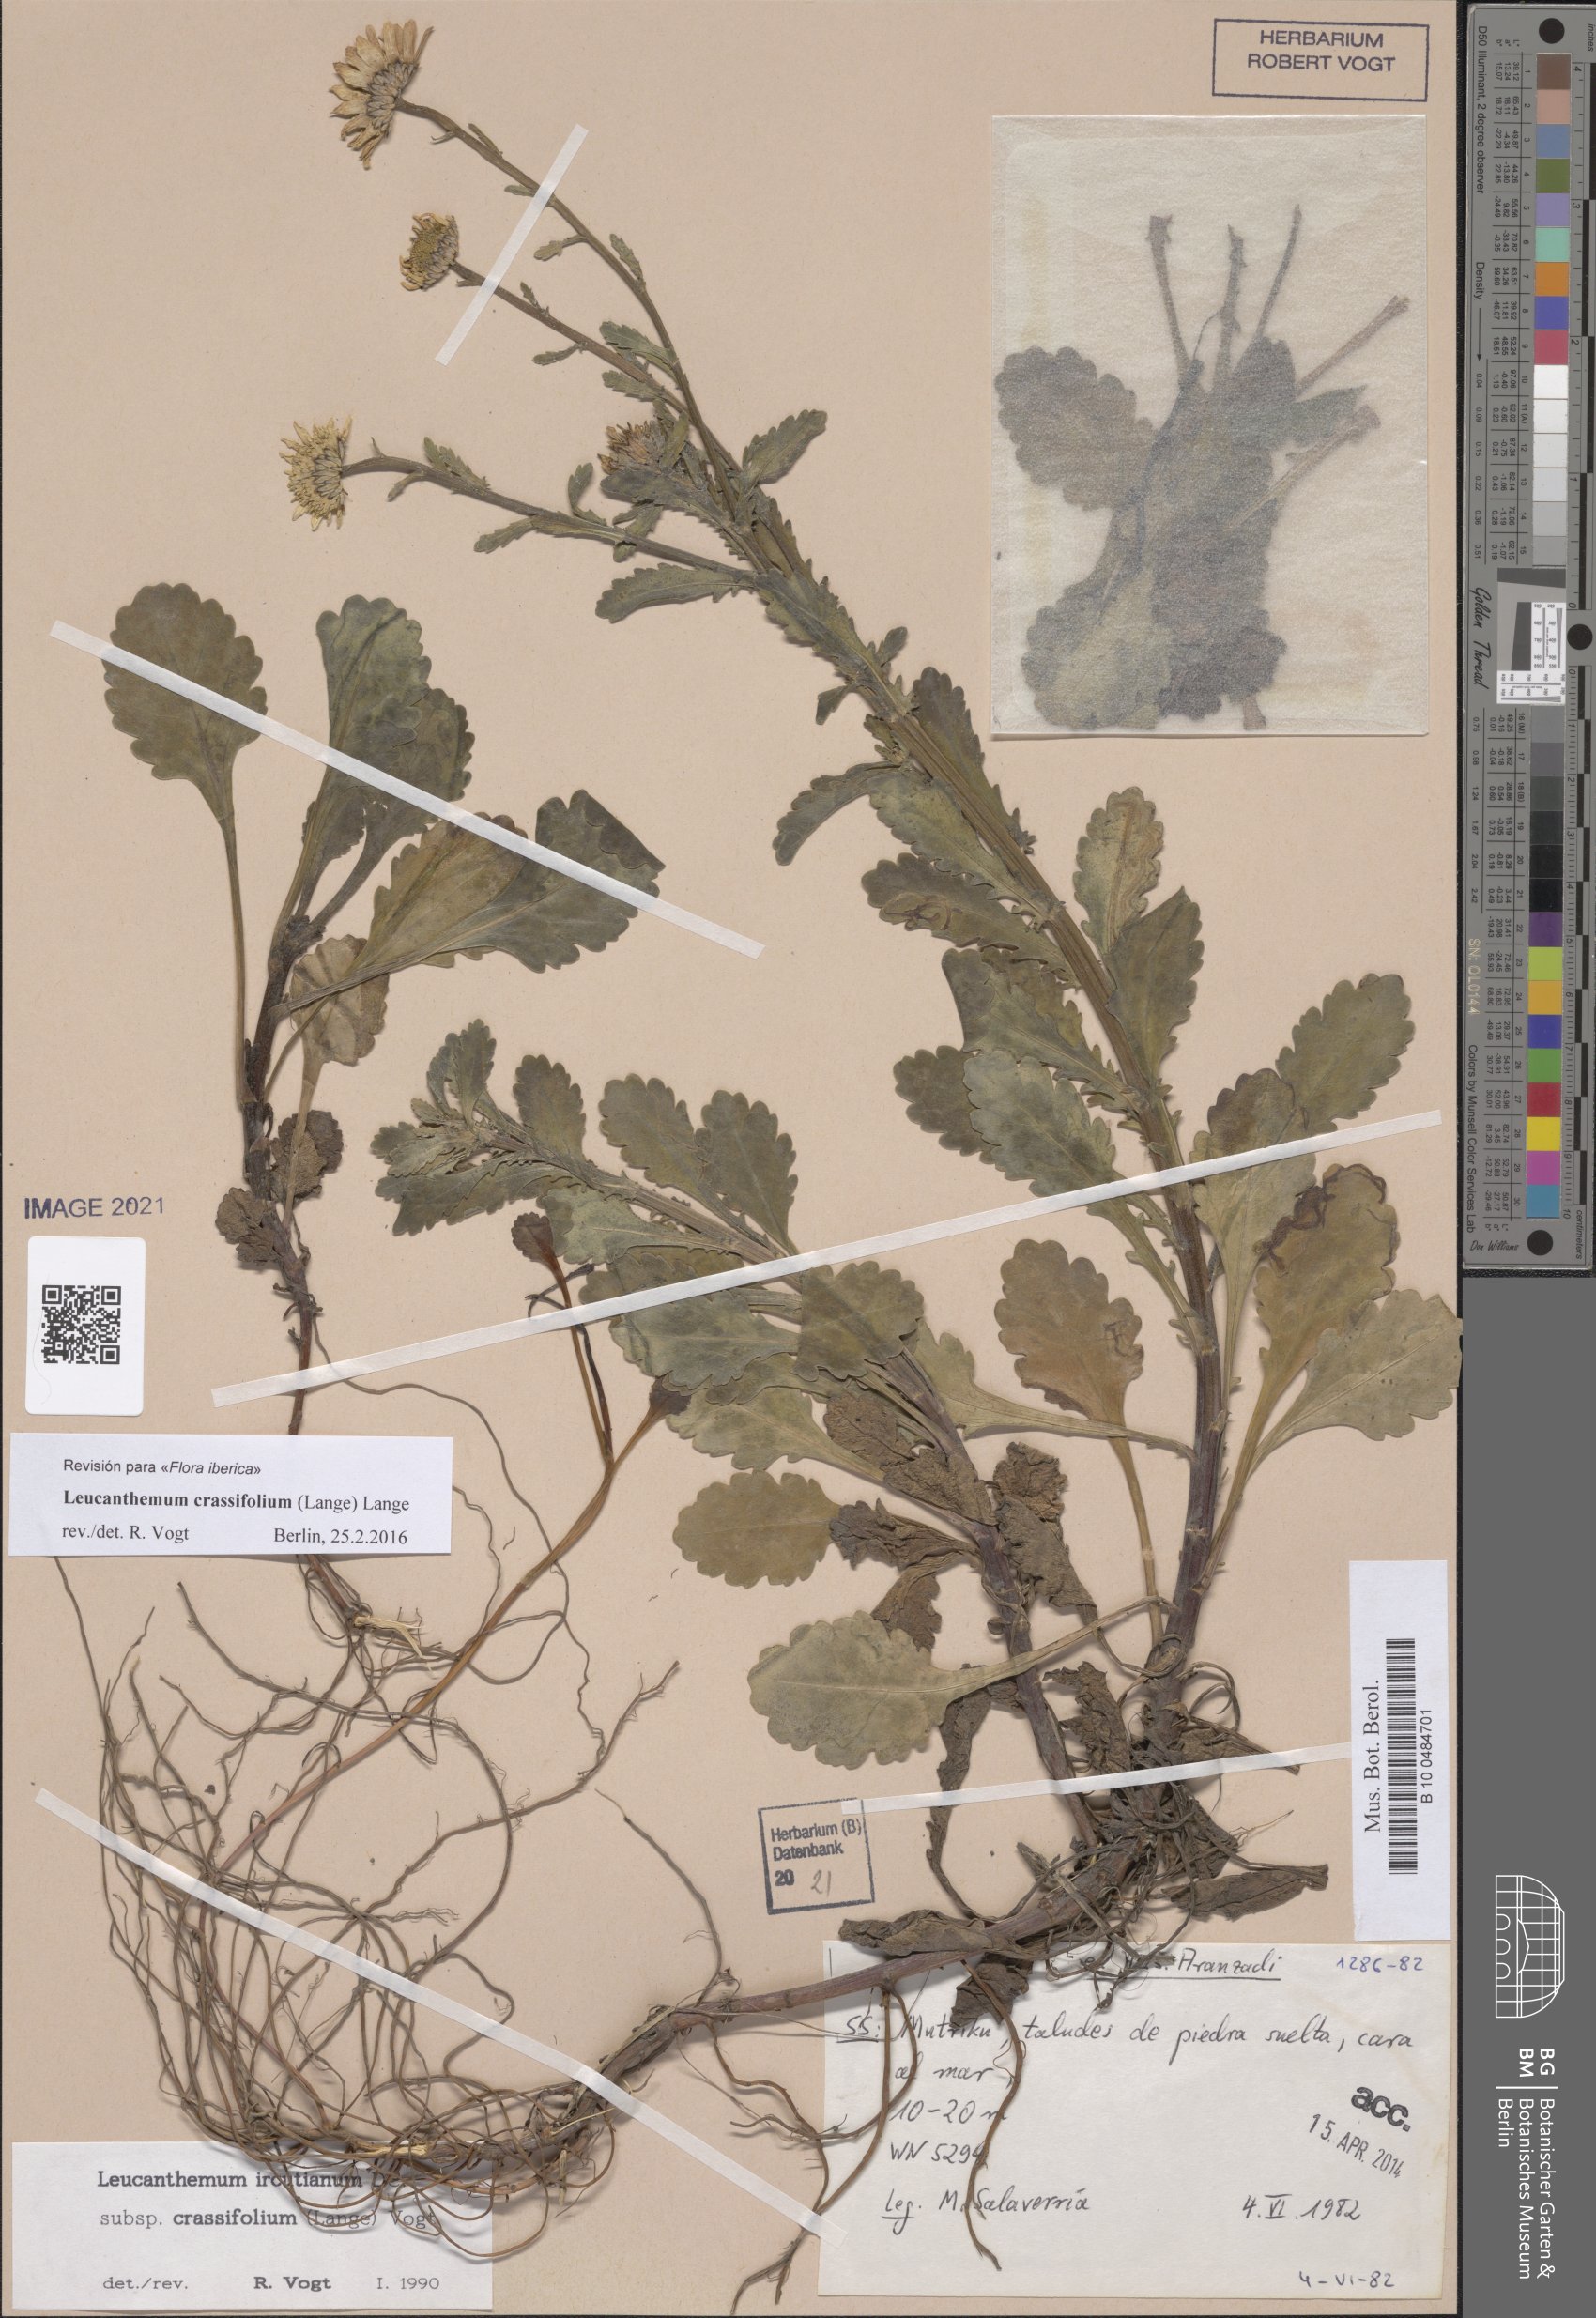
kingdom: Plantae
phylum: Tracheophyta
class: Magnoliopsida
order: Asterales
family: Asteraceae
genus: Leucanthemum
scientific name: Leucanthemum crassifolium
